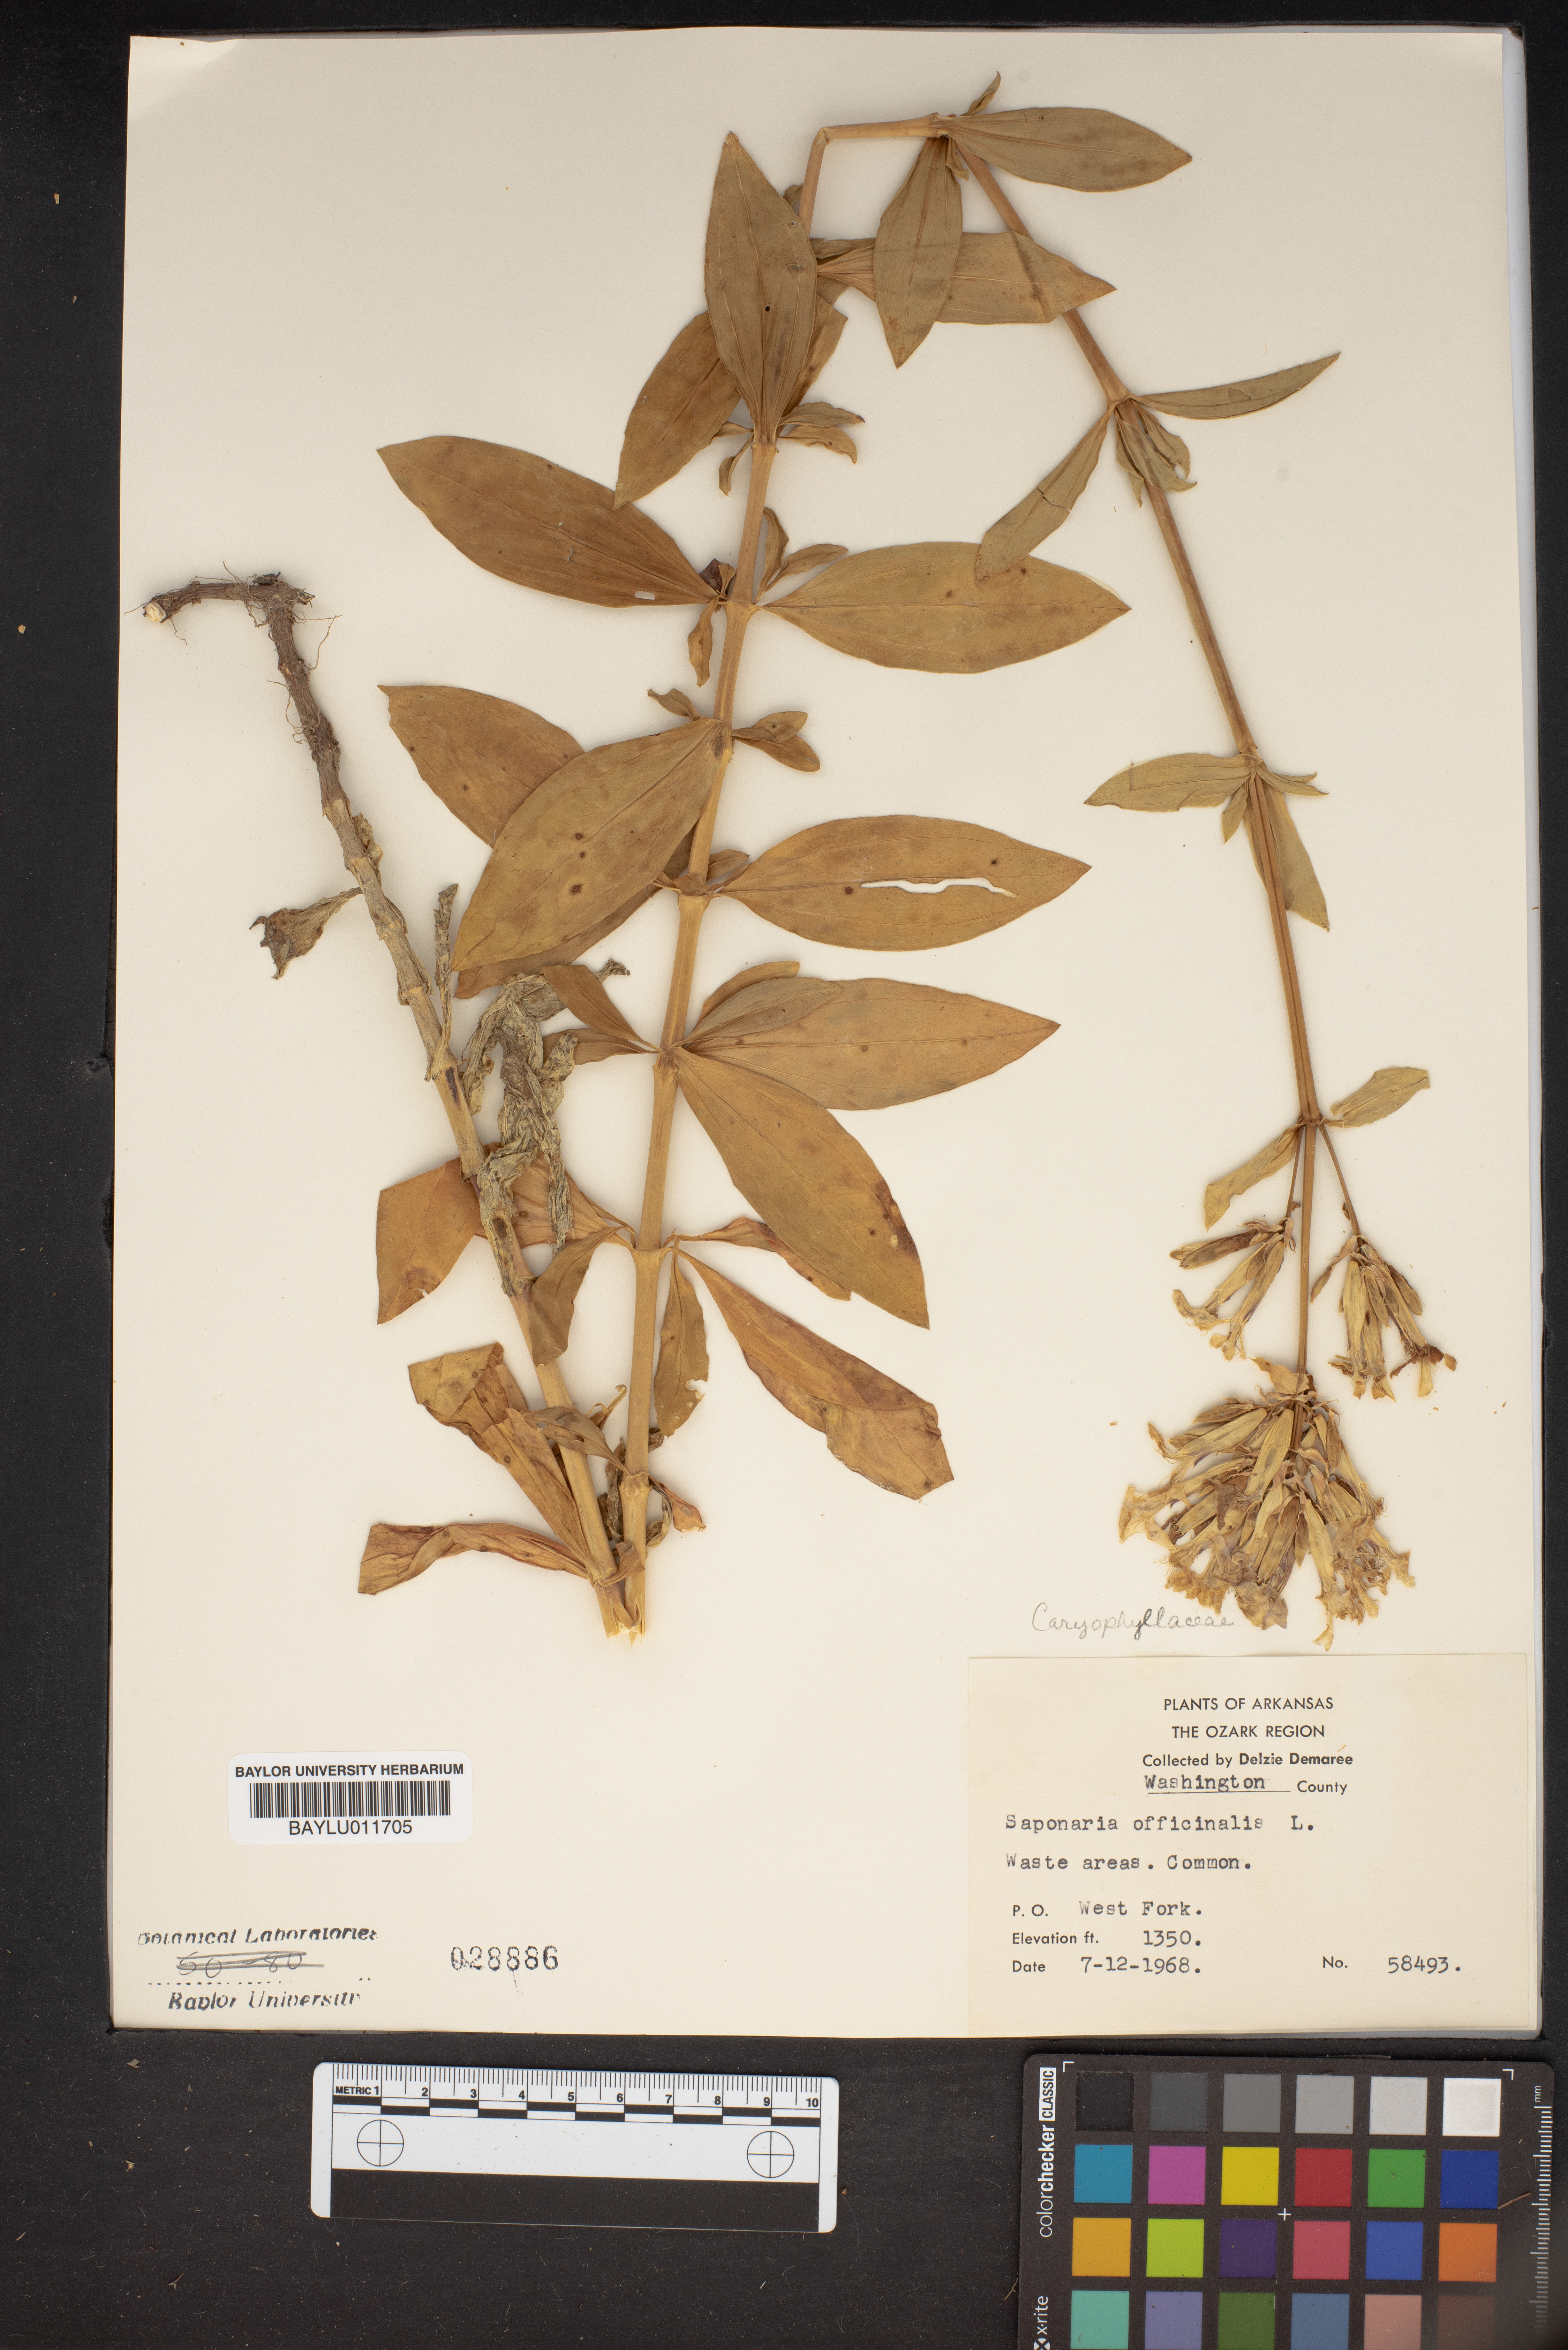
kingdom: Plantae
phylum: Tracheophyta
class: Magnoliopsida
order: Caryophyllales
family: Caryophyllaceae
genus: Saponaria
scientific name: Saponaria officinalis
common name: Soapwort
